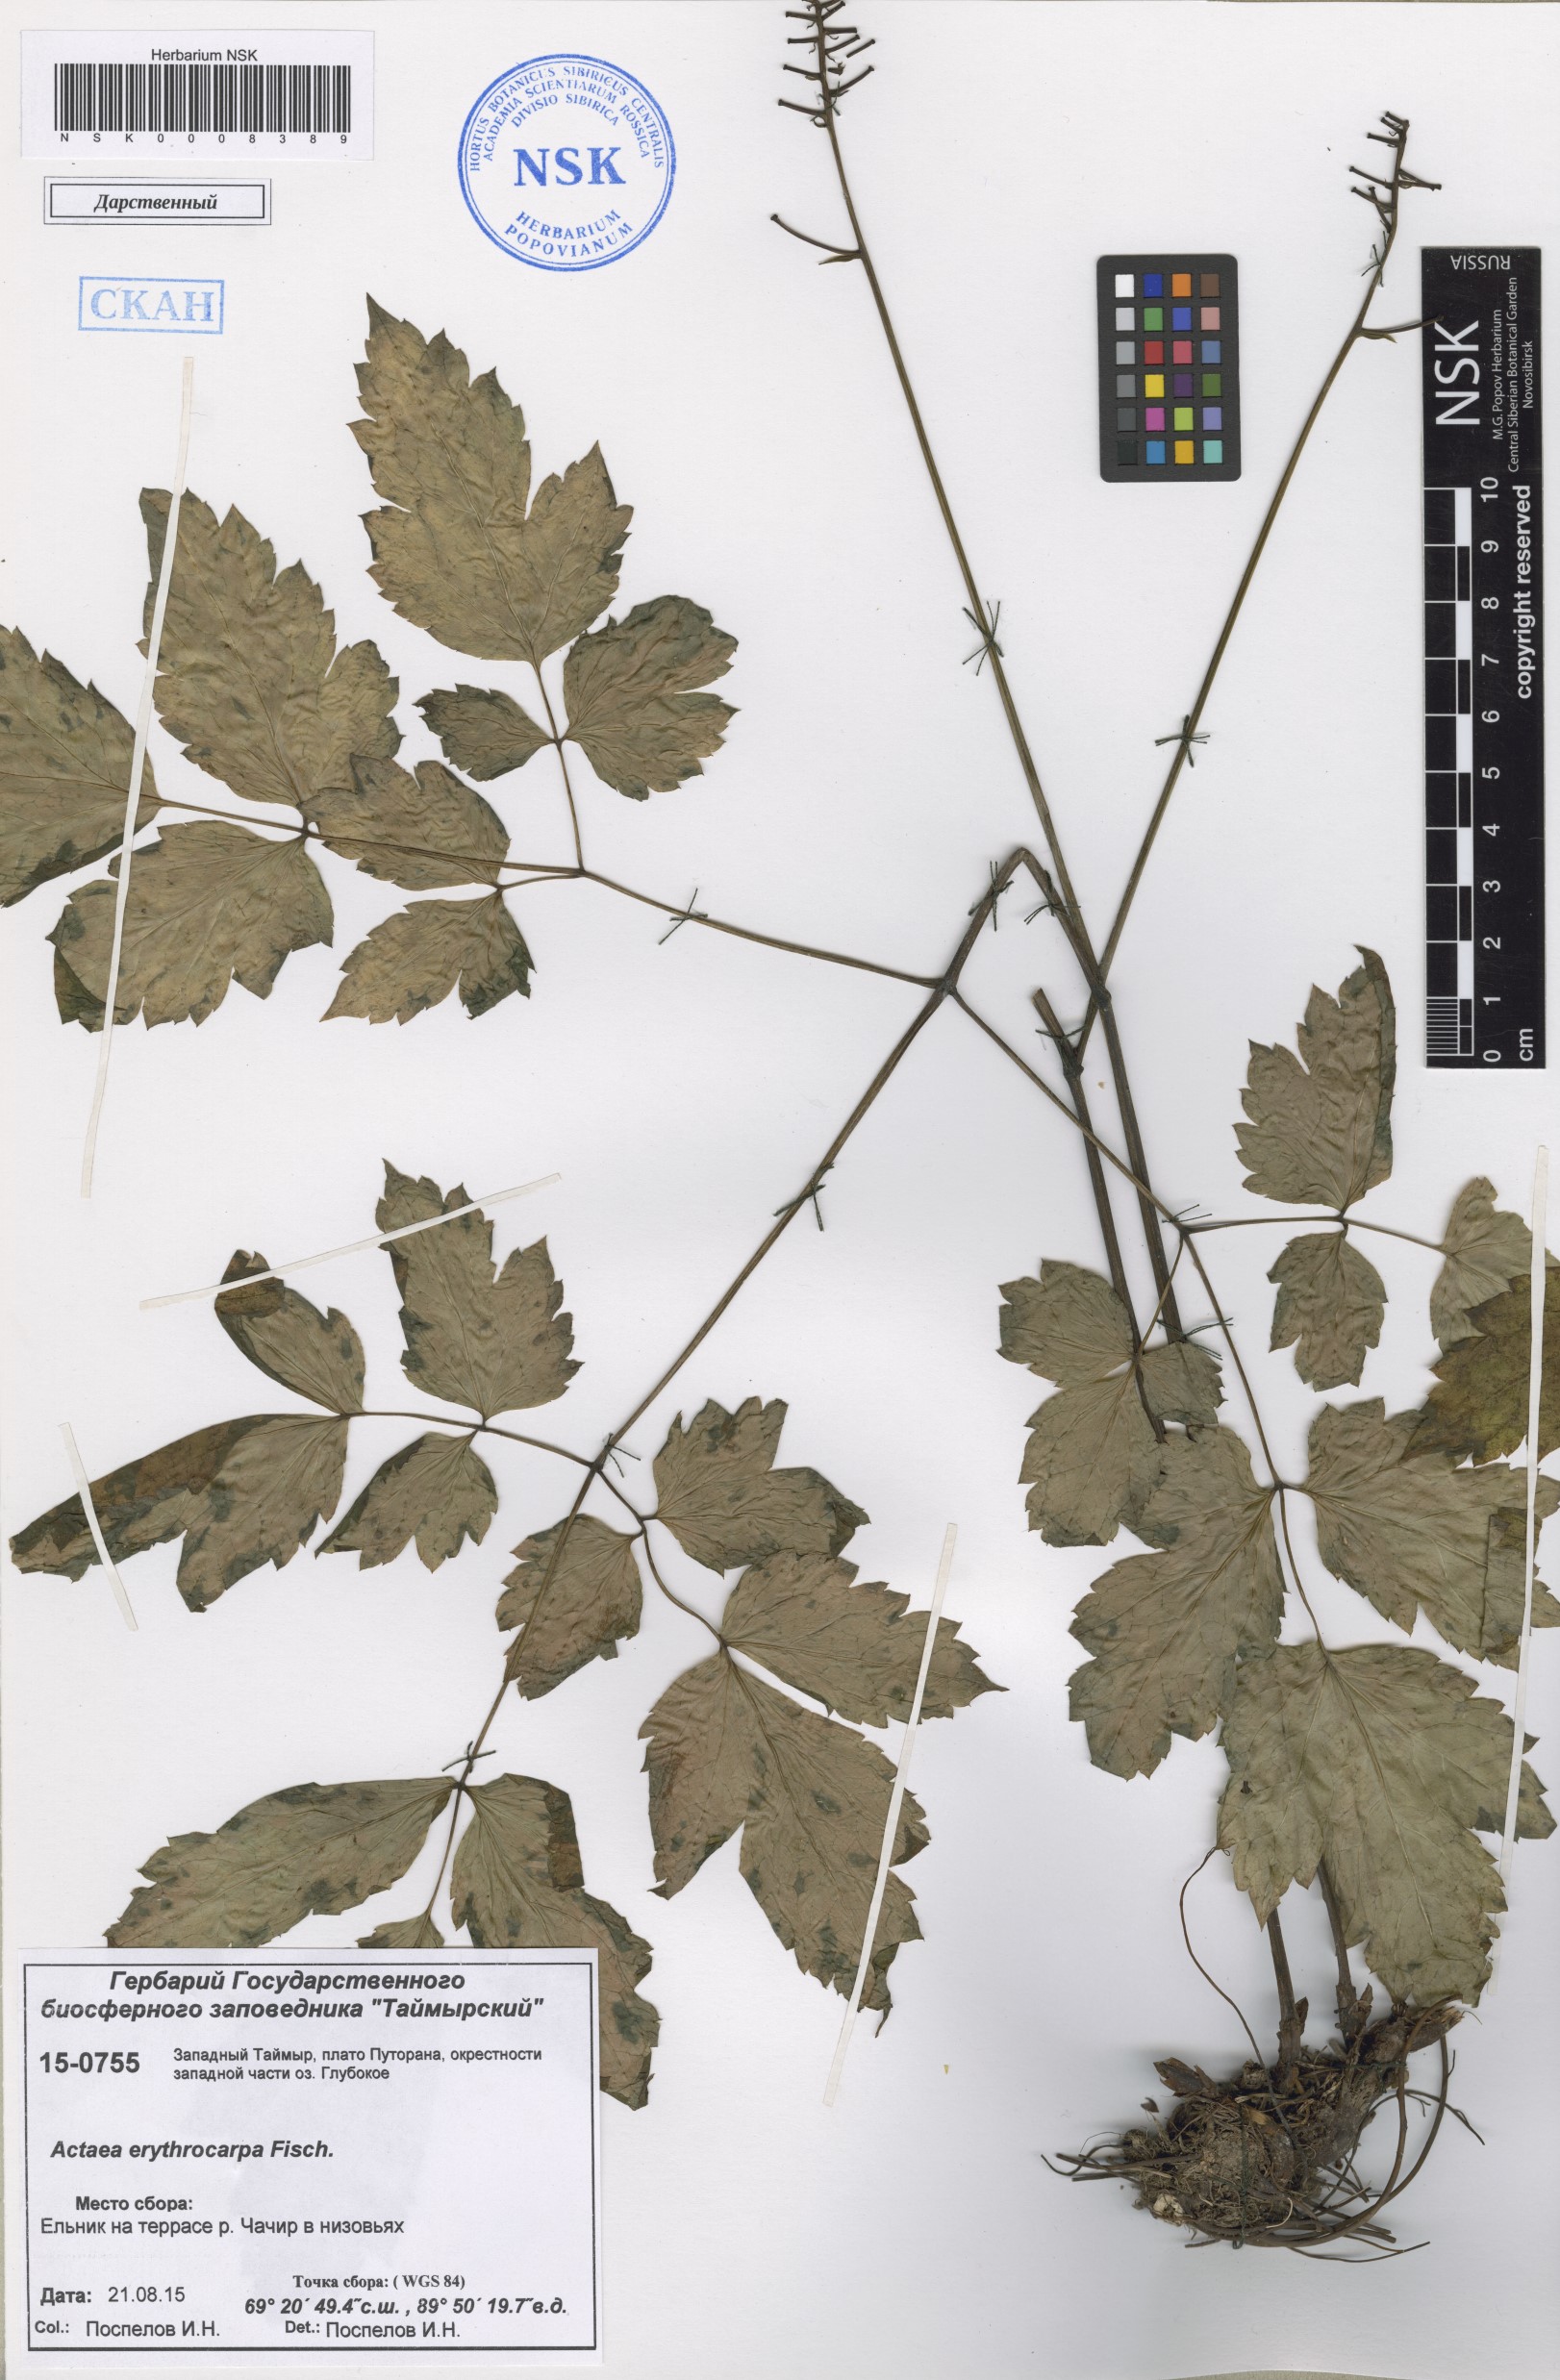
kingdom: Plantae
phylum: Tracheophyta
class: Magnoliopsida
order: Ranunculales
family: Ranunculaceae
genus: Actaea
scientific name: Actaea erythrocarpa
